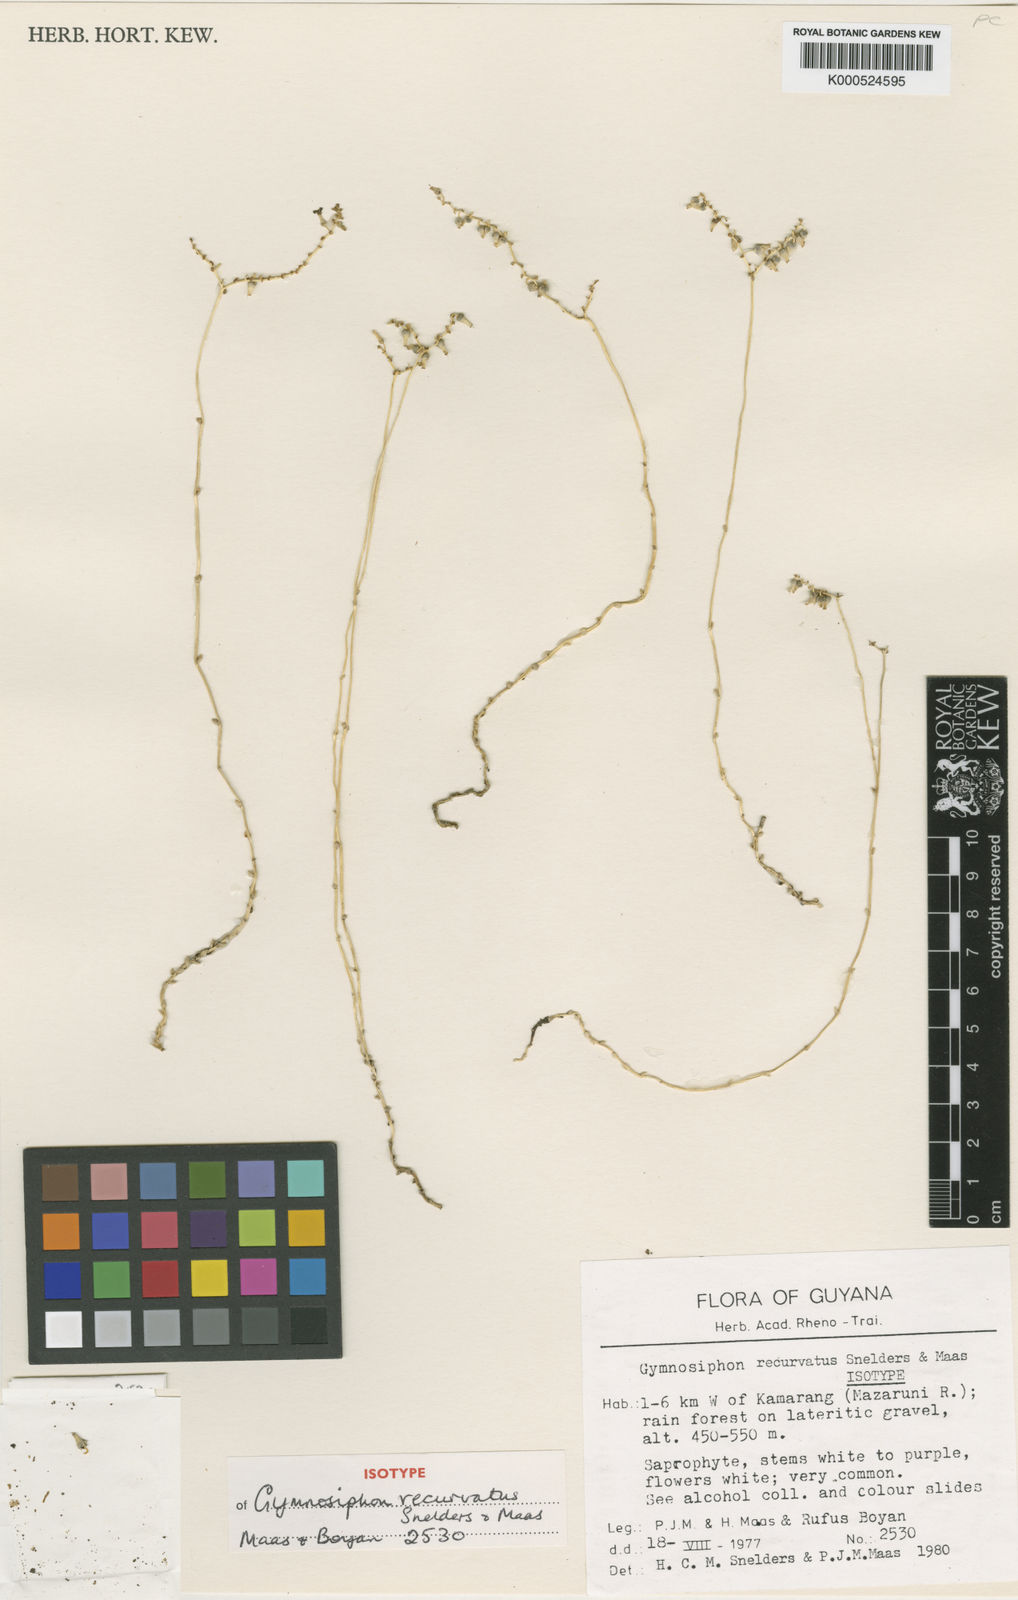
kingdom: Plantae
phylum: Tracheophyta
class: Liliopsida
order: Dioscoreales
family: Burmanniaceae
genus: Gymnosiphon
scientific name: Gymnosiphon recurvatus
